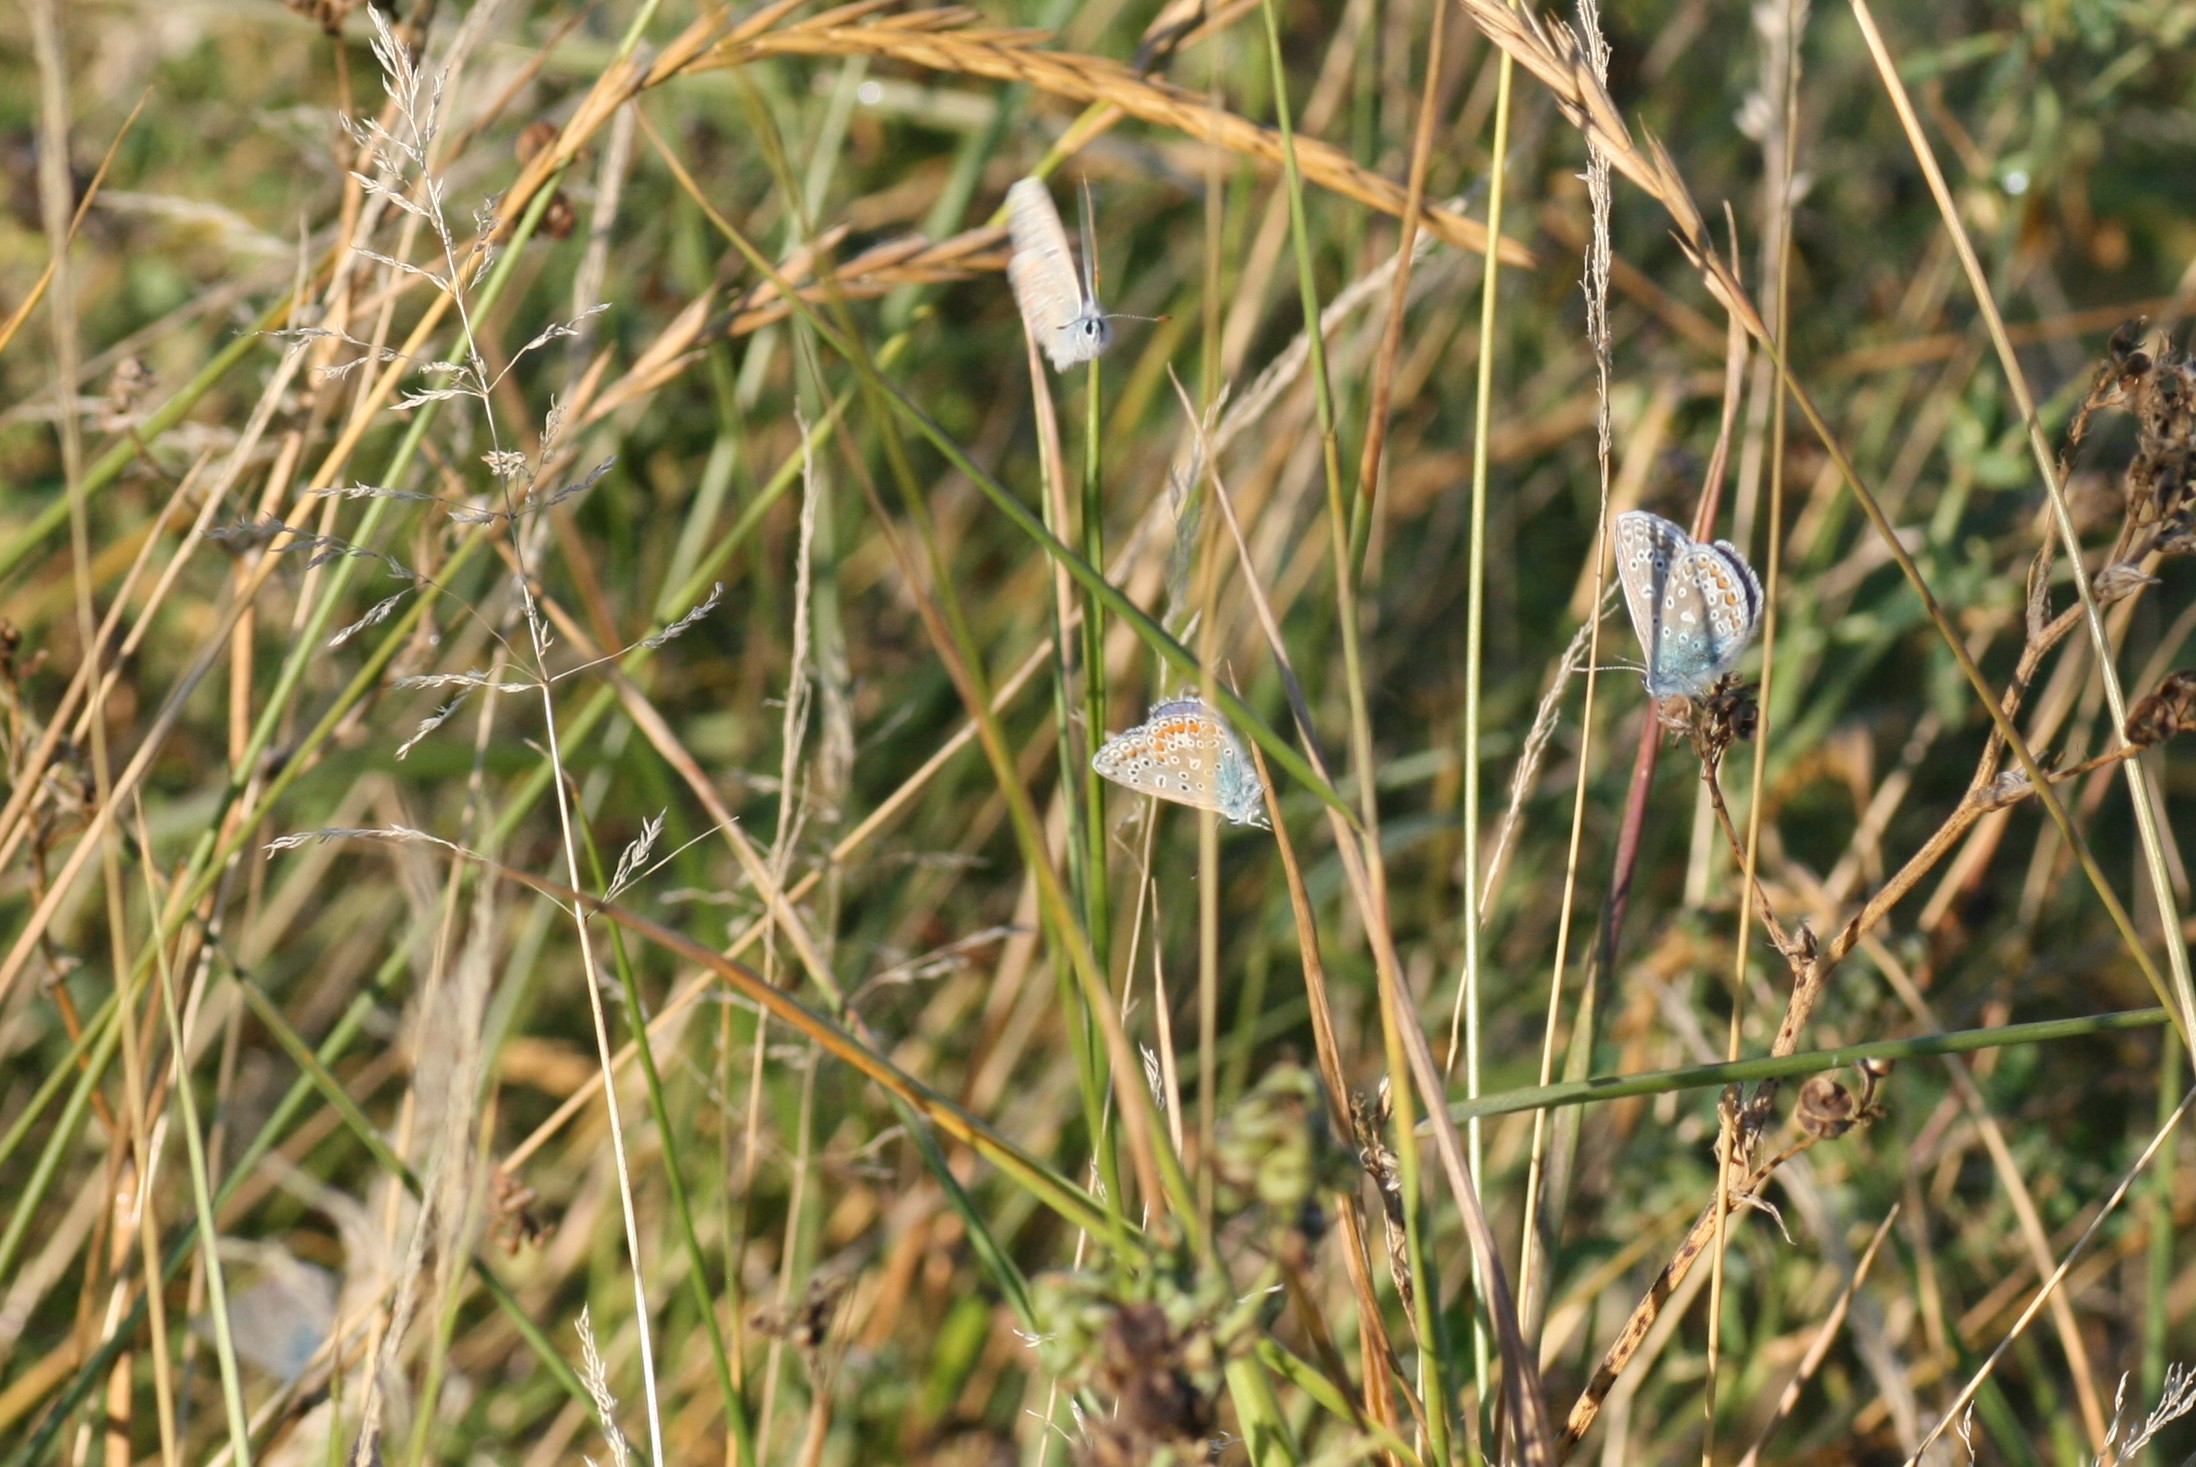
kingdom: Animalia
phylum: Arthropoda
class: Insecta
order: Lepidoptera
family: Lycaenidae
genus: Polyommatus
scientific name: Polyommatus icarus
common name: Almindelig blåfugl
